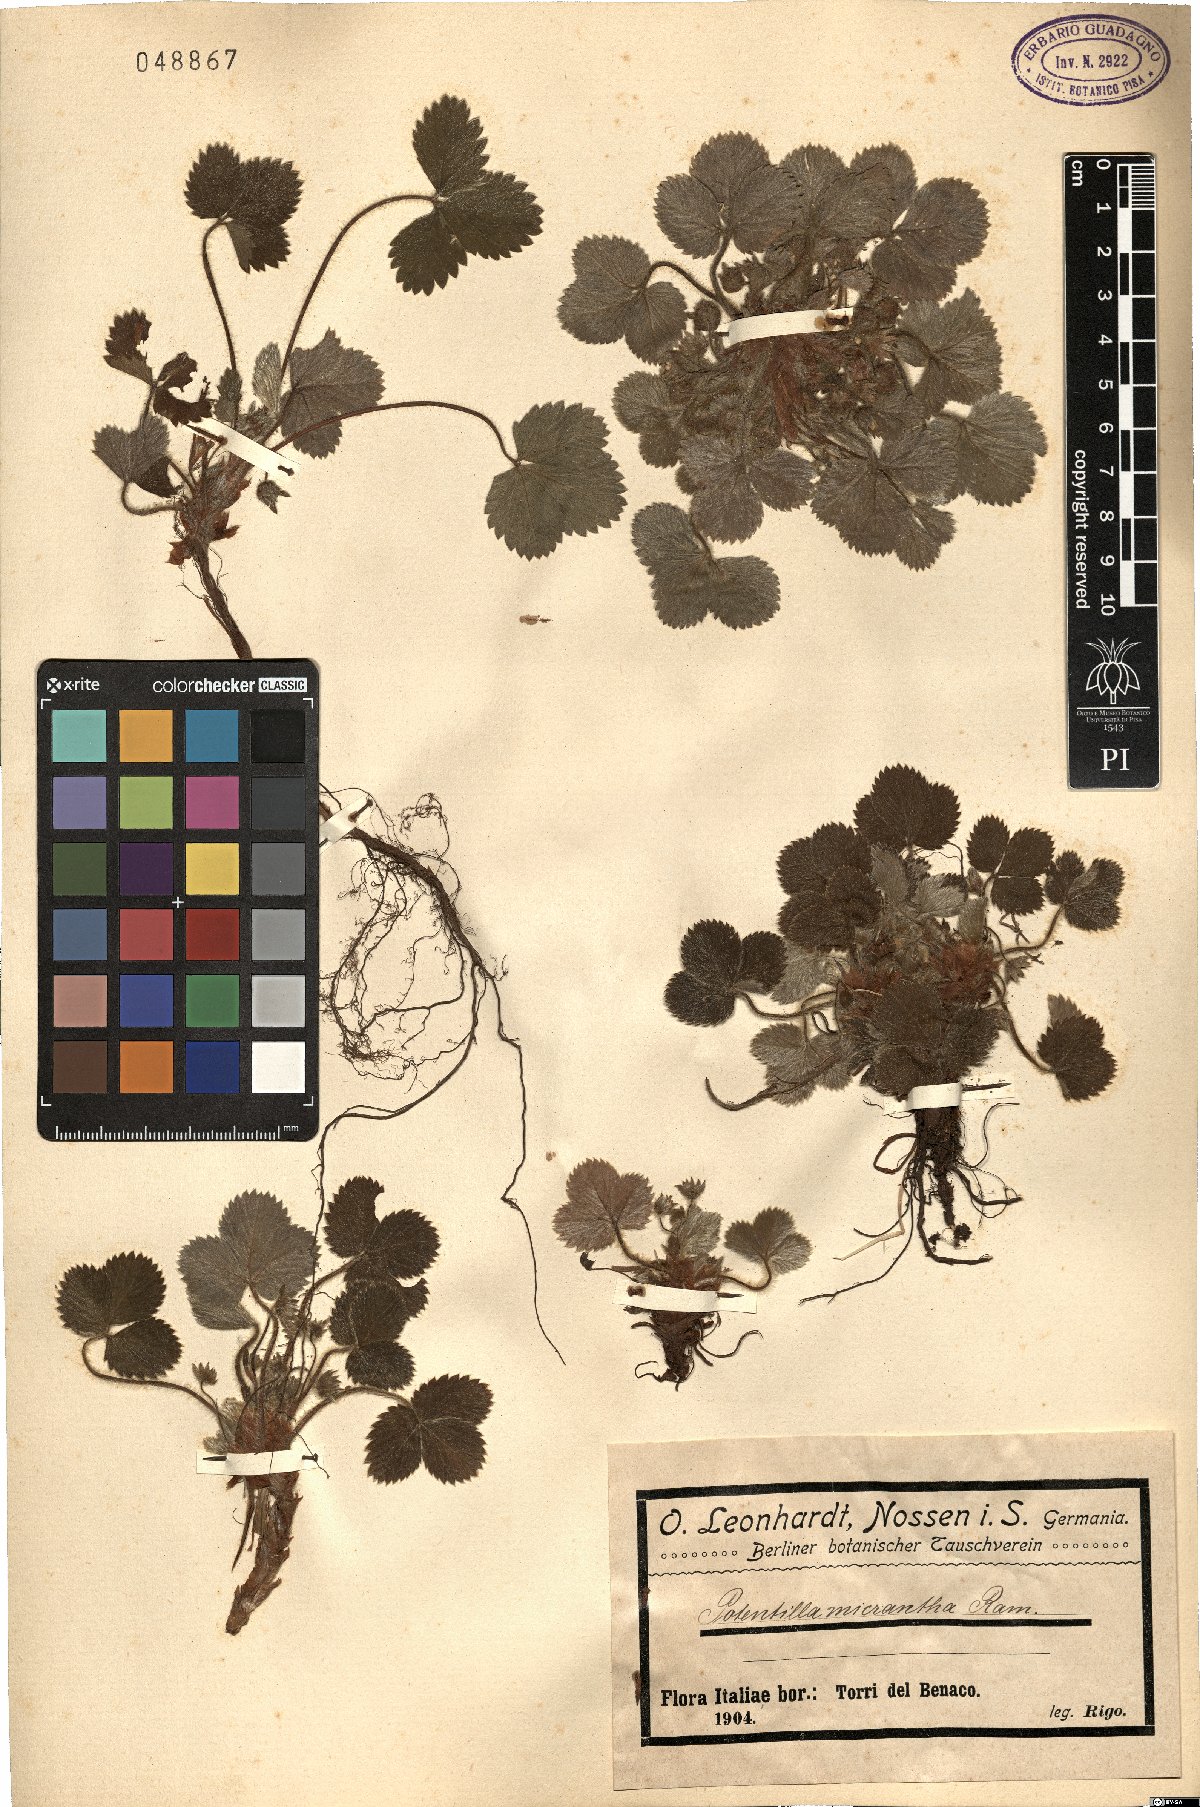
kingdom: Plantae
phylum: Tracheophyta
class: Magnoliopsida
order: Rosales
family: Rosaceae
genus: Potentilla
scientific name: Potentilla micrantha
